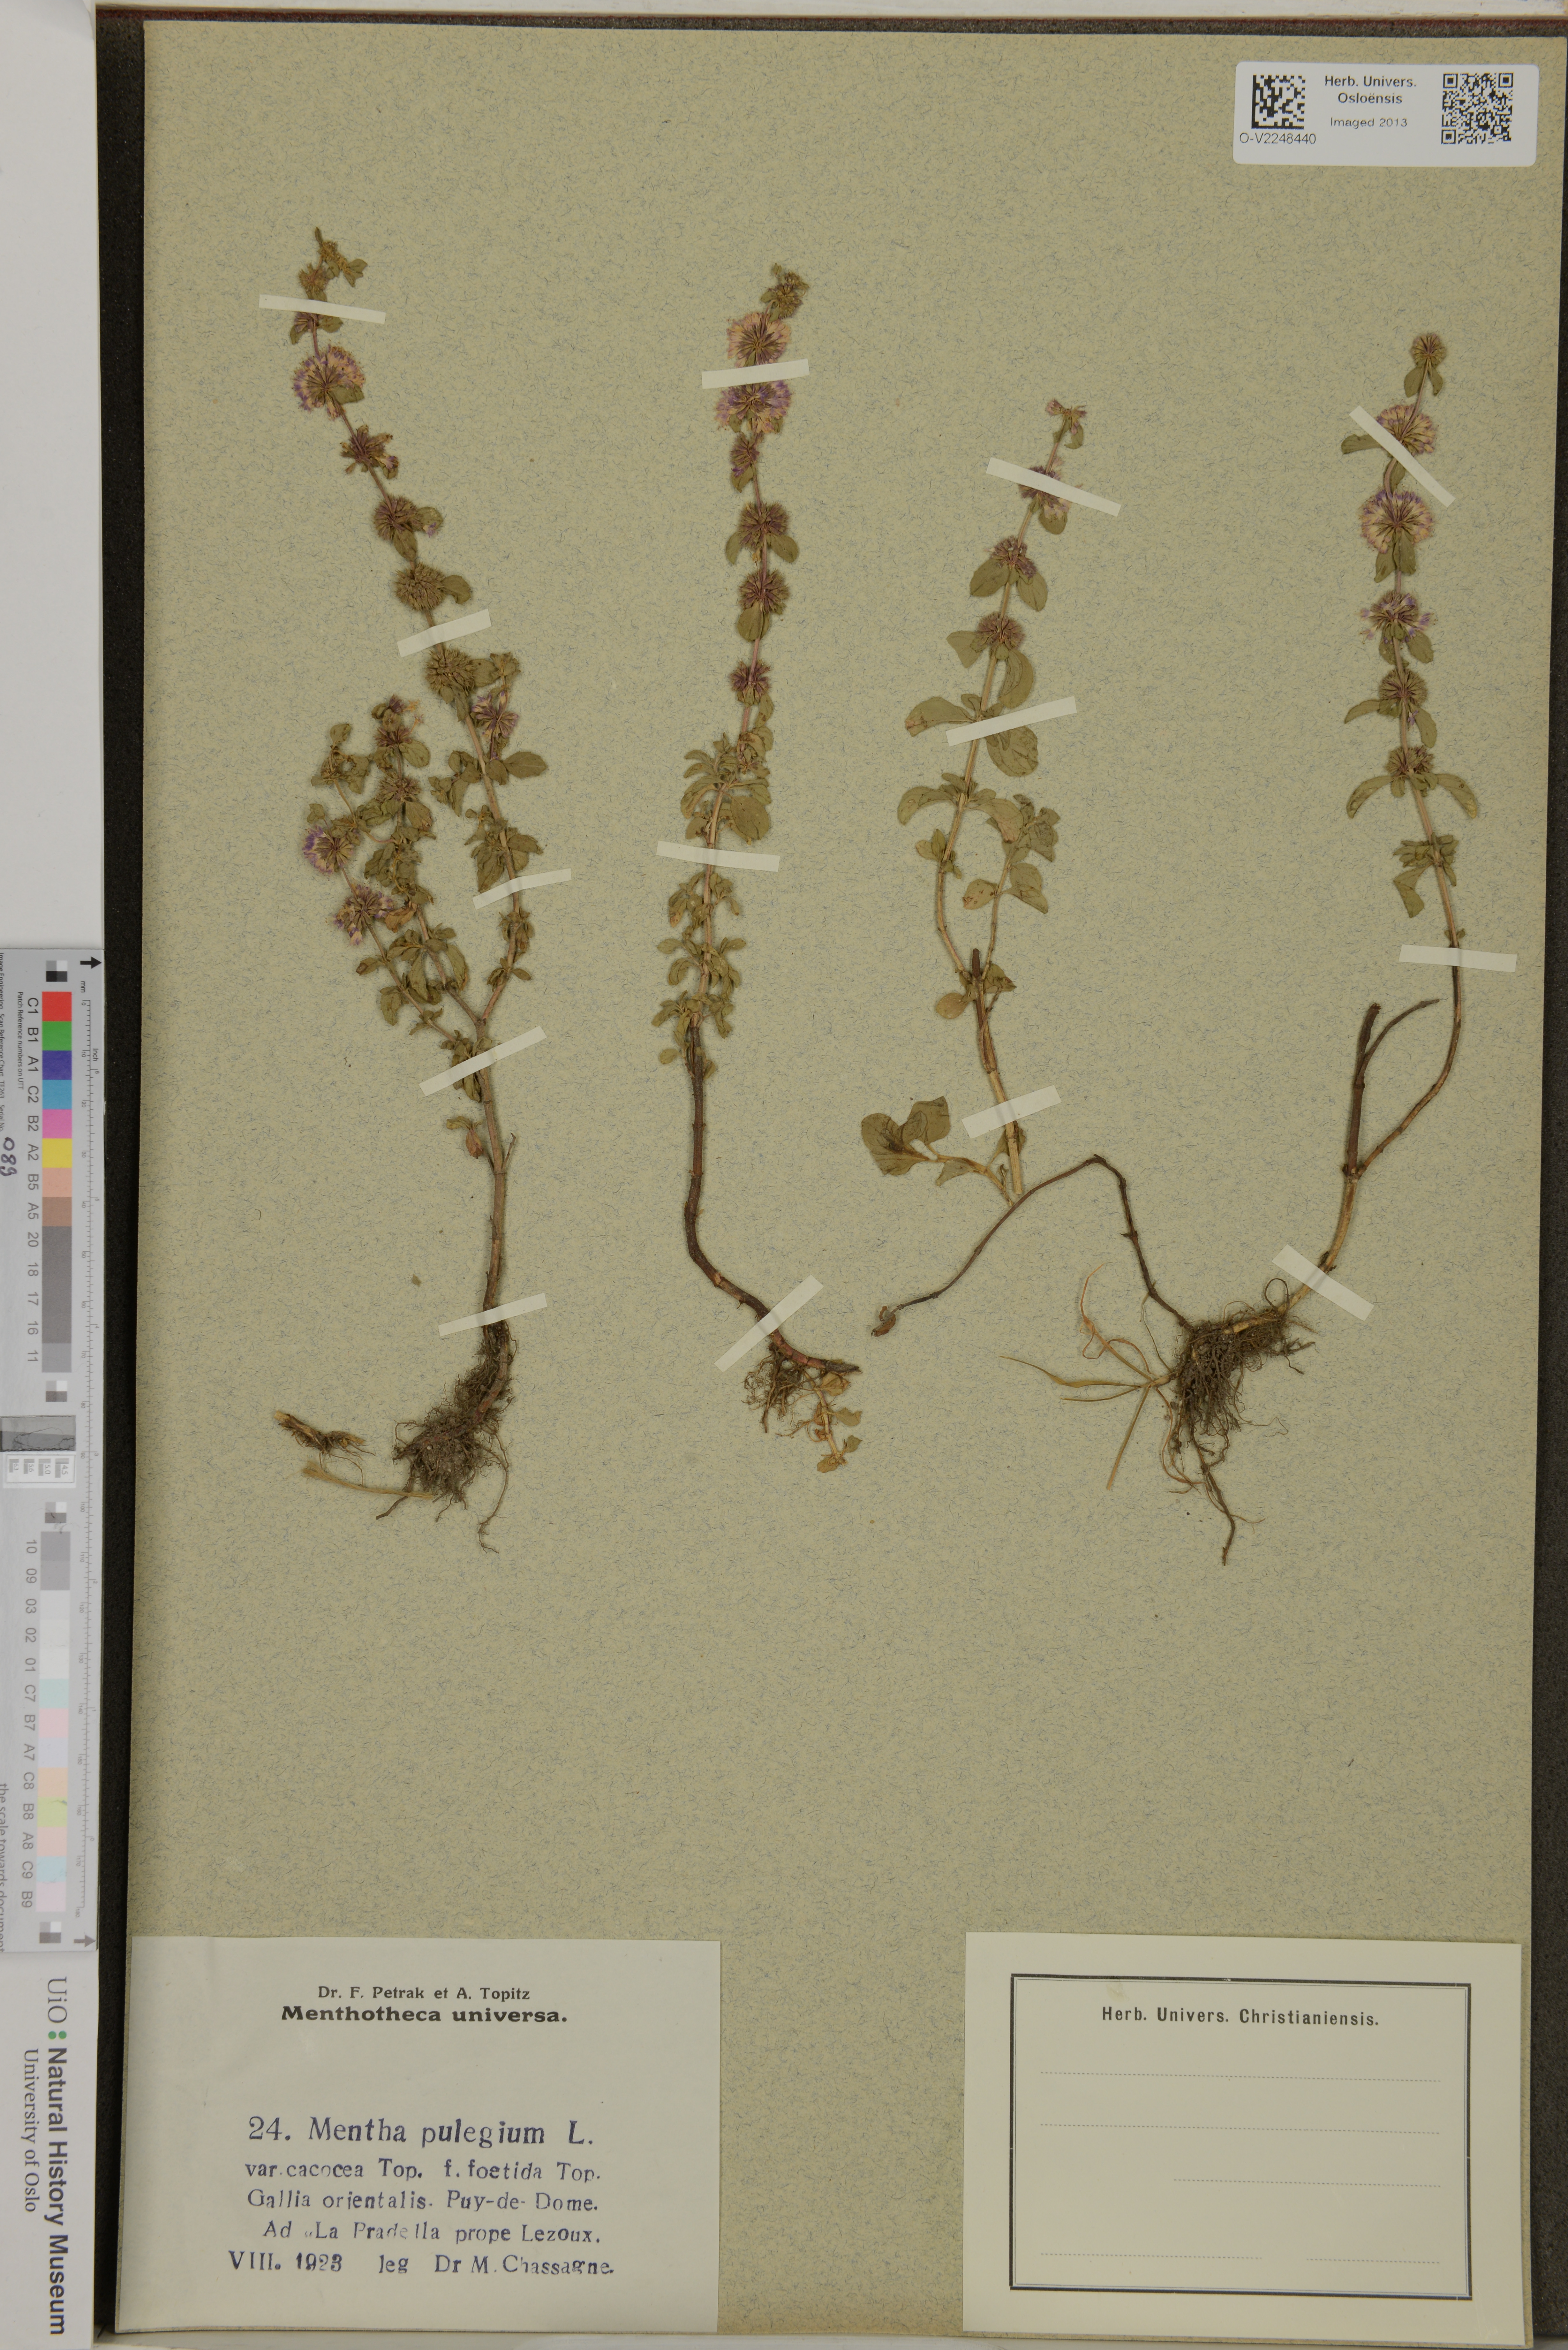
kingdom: Plantae
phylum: Tracheophyta
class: Magnoliopsida
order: Lamiales
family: Lamiaceae
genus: Mentha
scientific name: Mentha pulegium
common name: Pennyroyal
